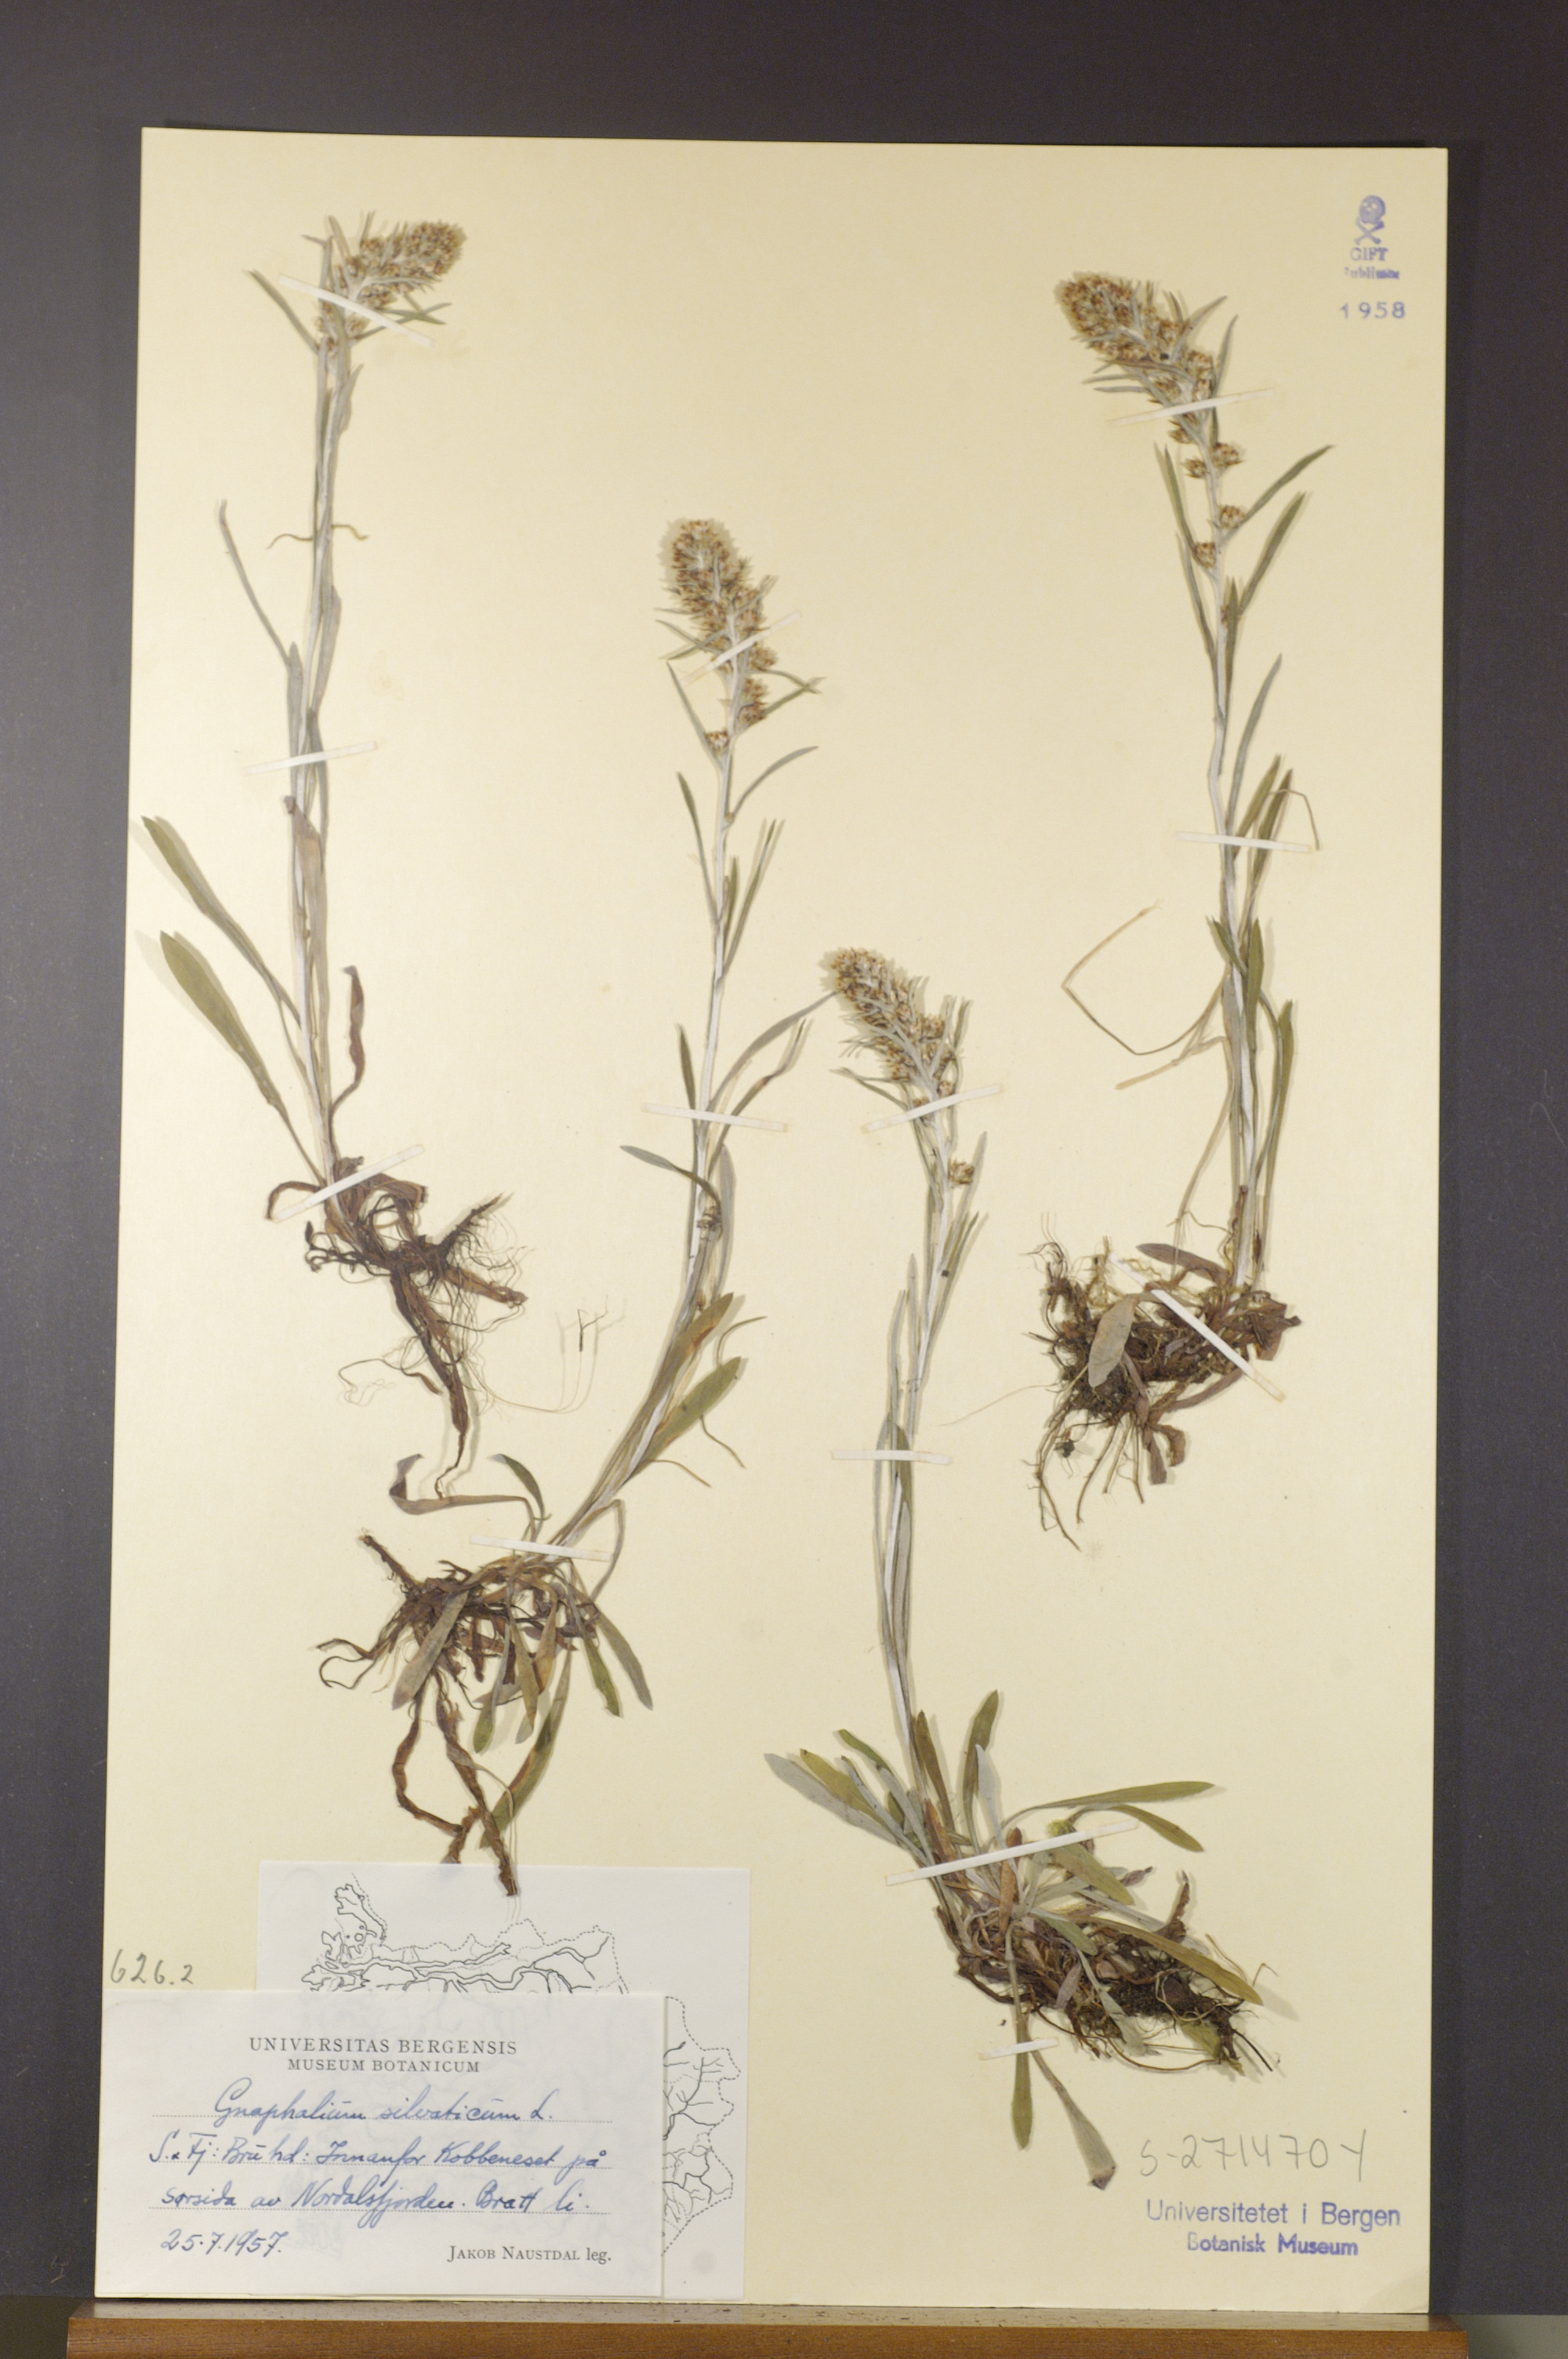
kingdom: Plantae
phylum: Tracheophyta
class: Magnoliopsida
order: Asterales
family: Asteraceae
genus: Omalotheca
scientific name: Omalotheca sylvatica
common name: Heath cudweed
